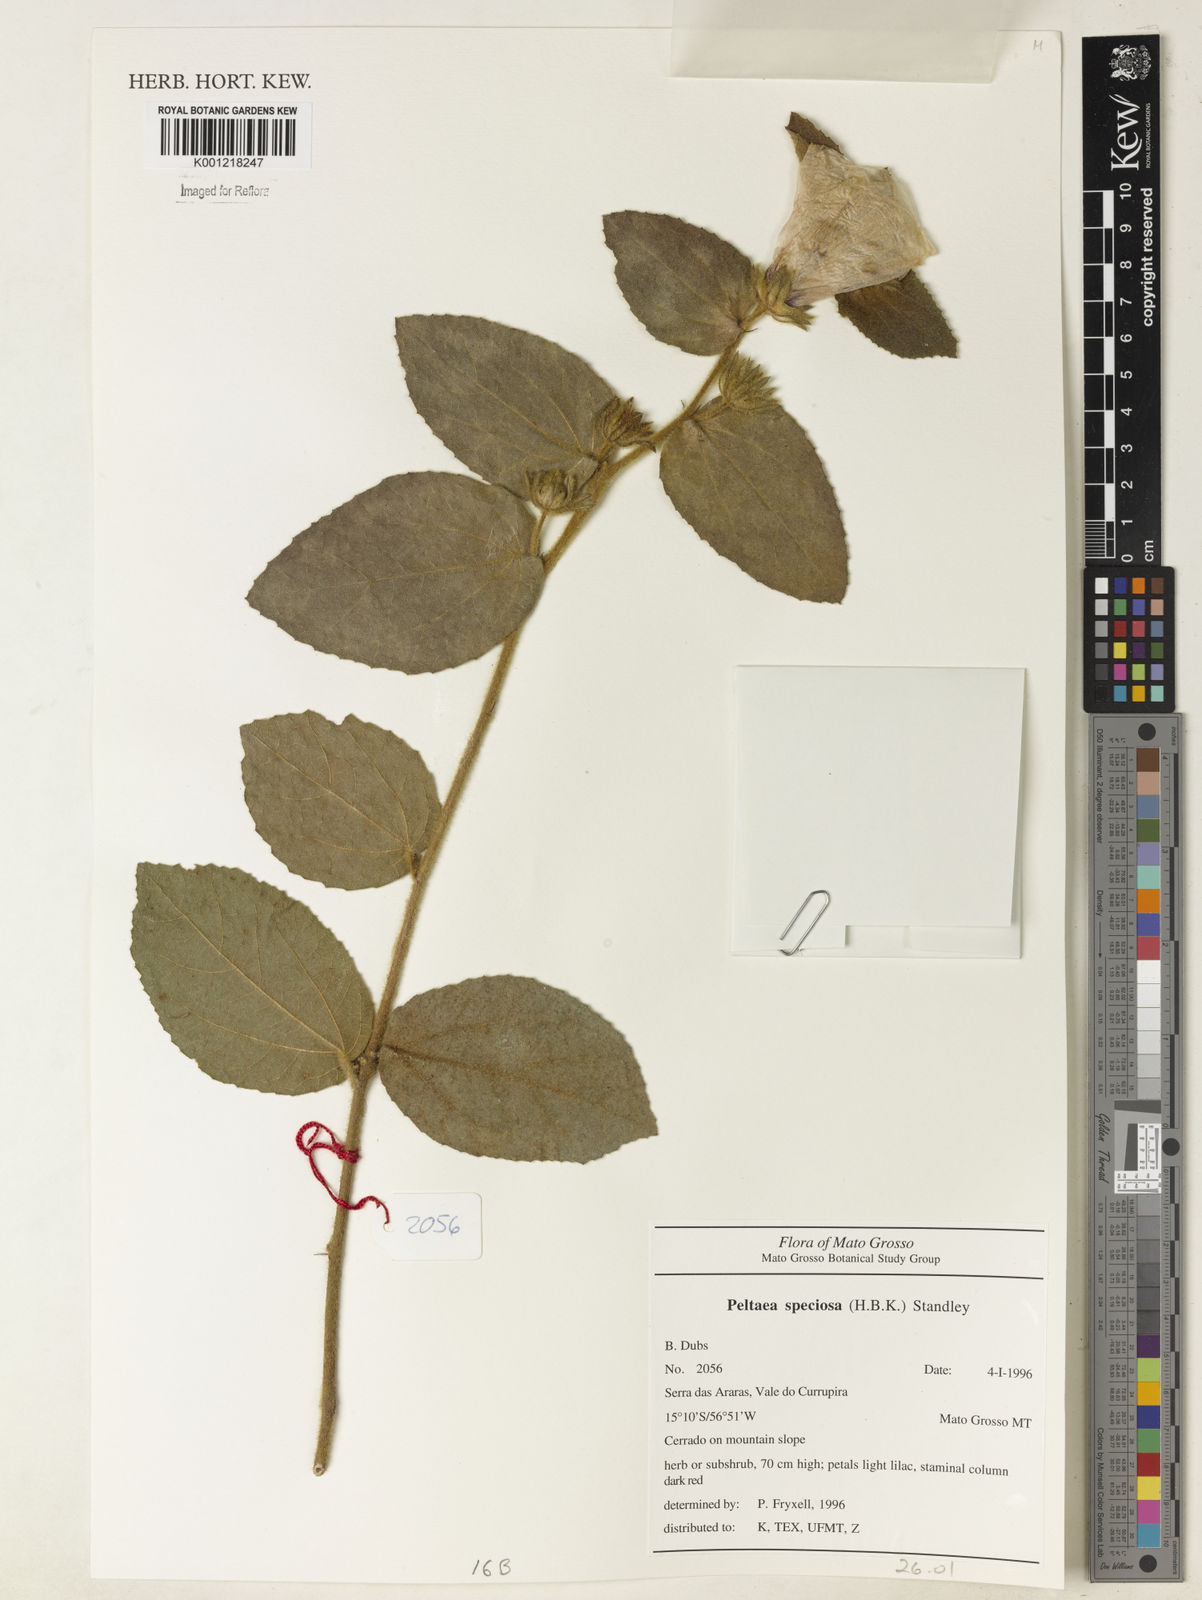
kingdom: Plantae
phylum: Tracheophyta
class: Magnoliopsida
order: Malvales
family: Malvaceae
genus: Peltaea
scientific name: Peltaea speciosa
